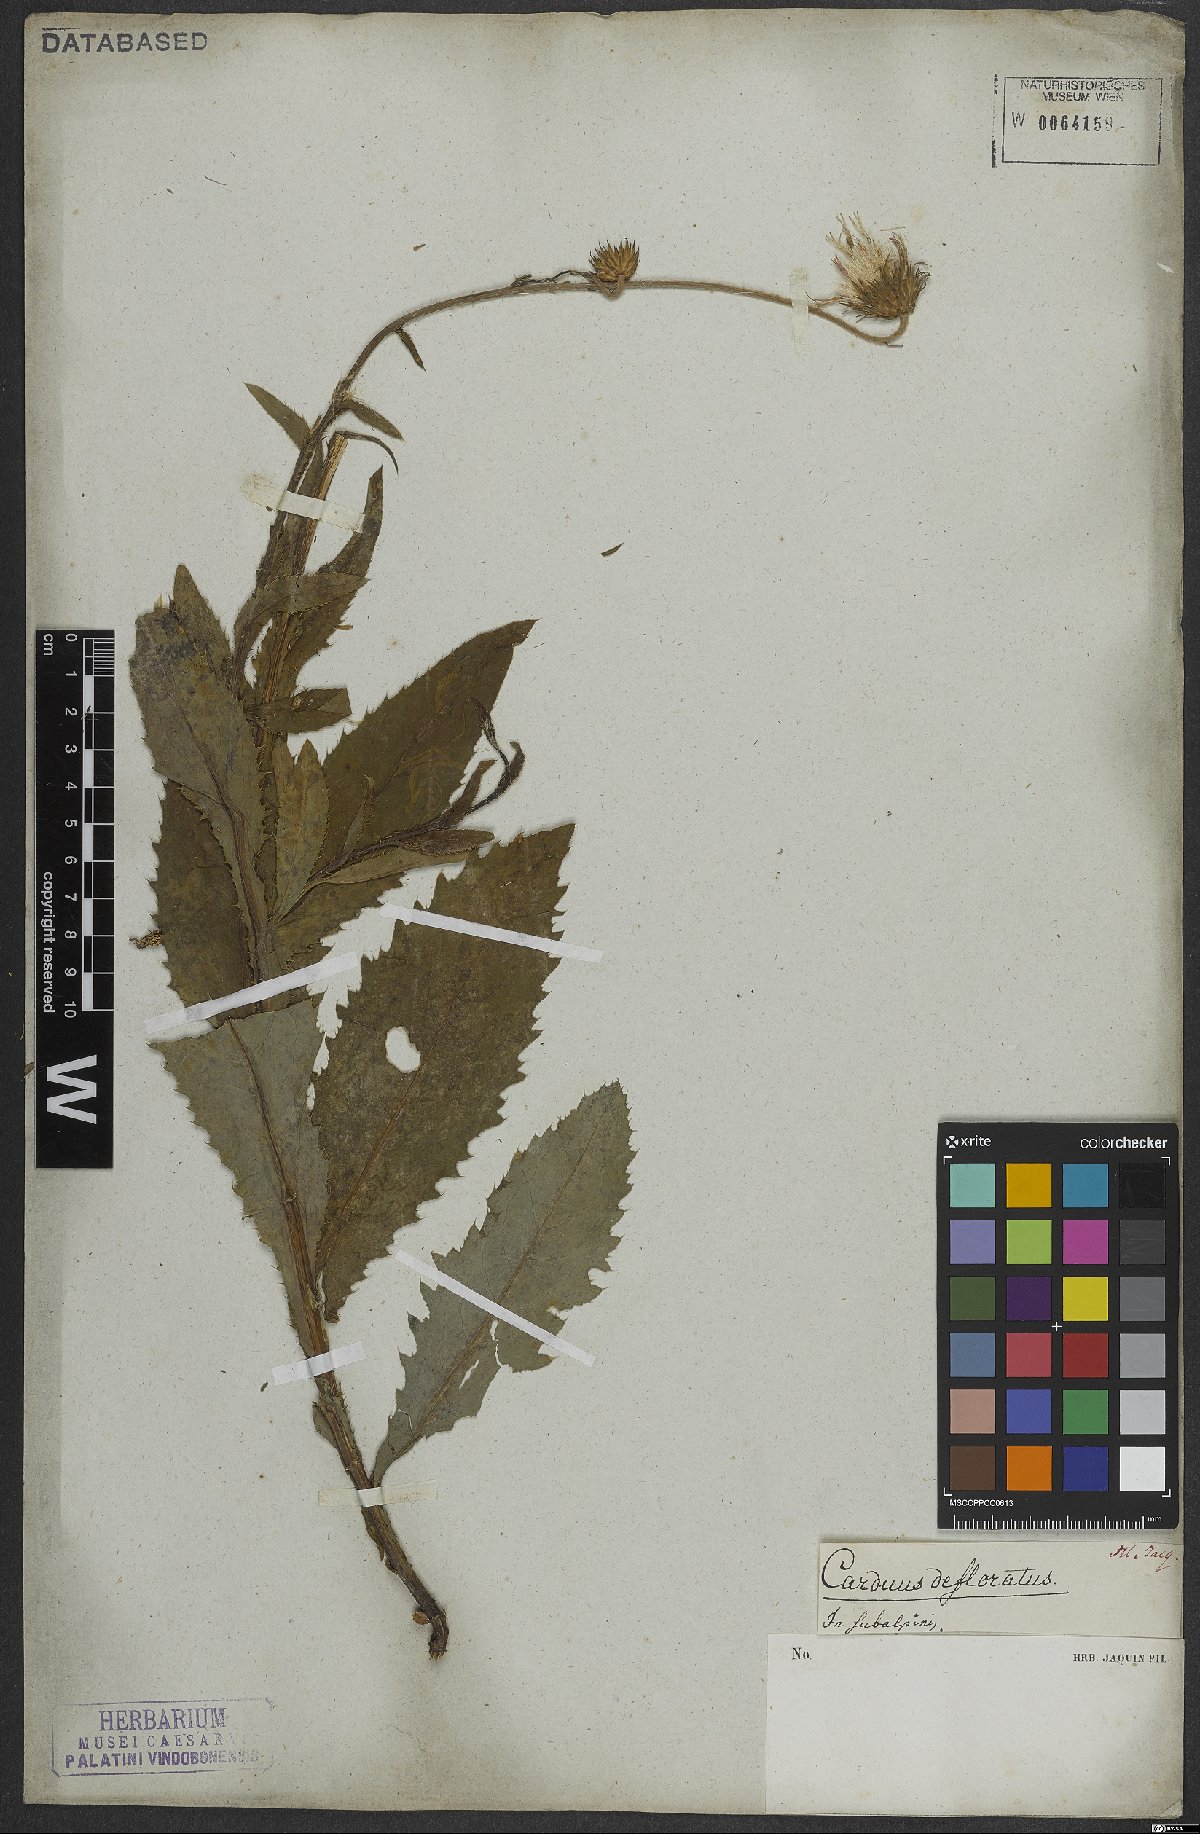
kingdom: Plantae
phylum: Tracheophyta
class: Magnoliopsida
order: Asterales
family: Asteraceae
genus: Carduus
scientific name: Carduus defloratus
